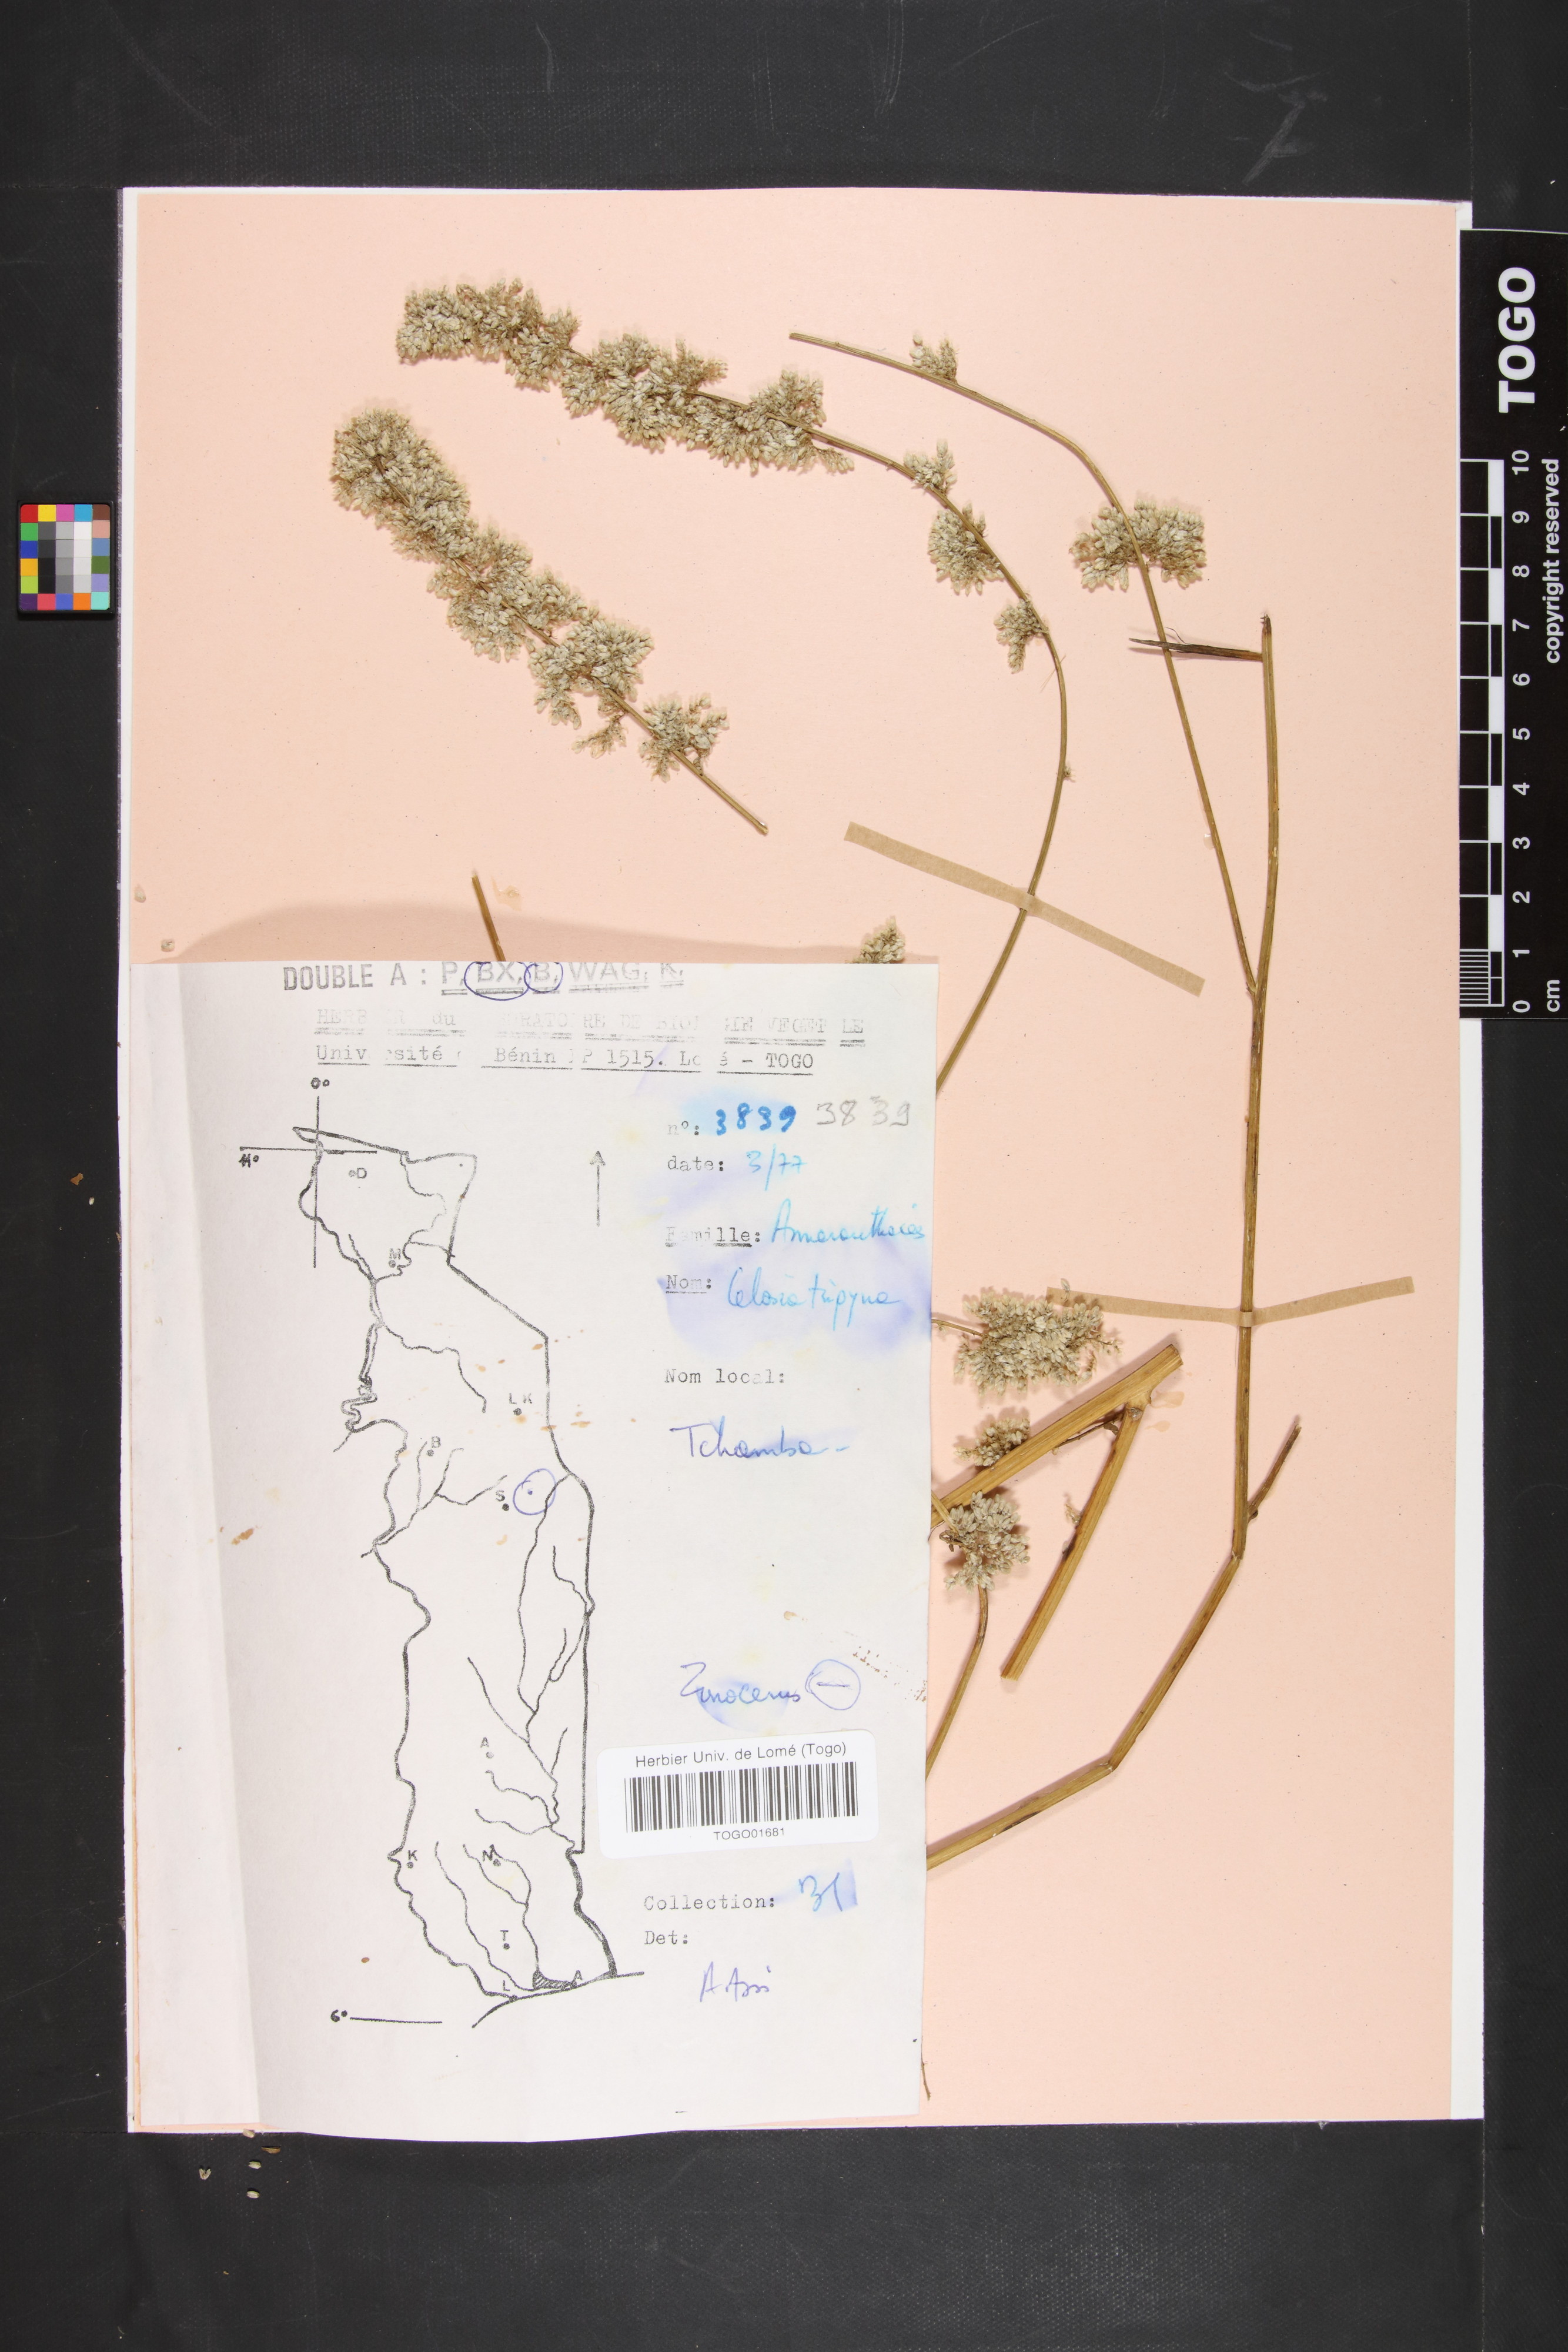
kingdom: Plantae
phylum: Tracheophyta
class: Magnoliopsida
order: Caryophyllales
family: Amaranthaceae
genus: Celosia
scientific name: Celosia trigyna
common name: Woolflower
